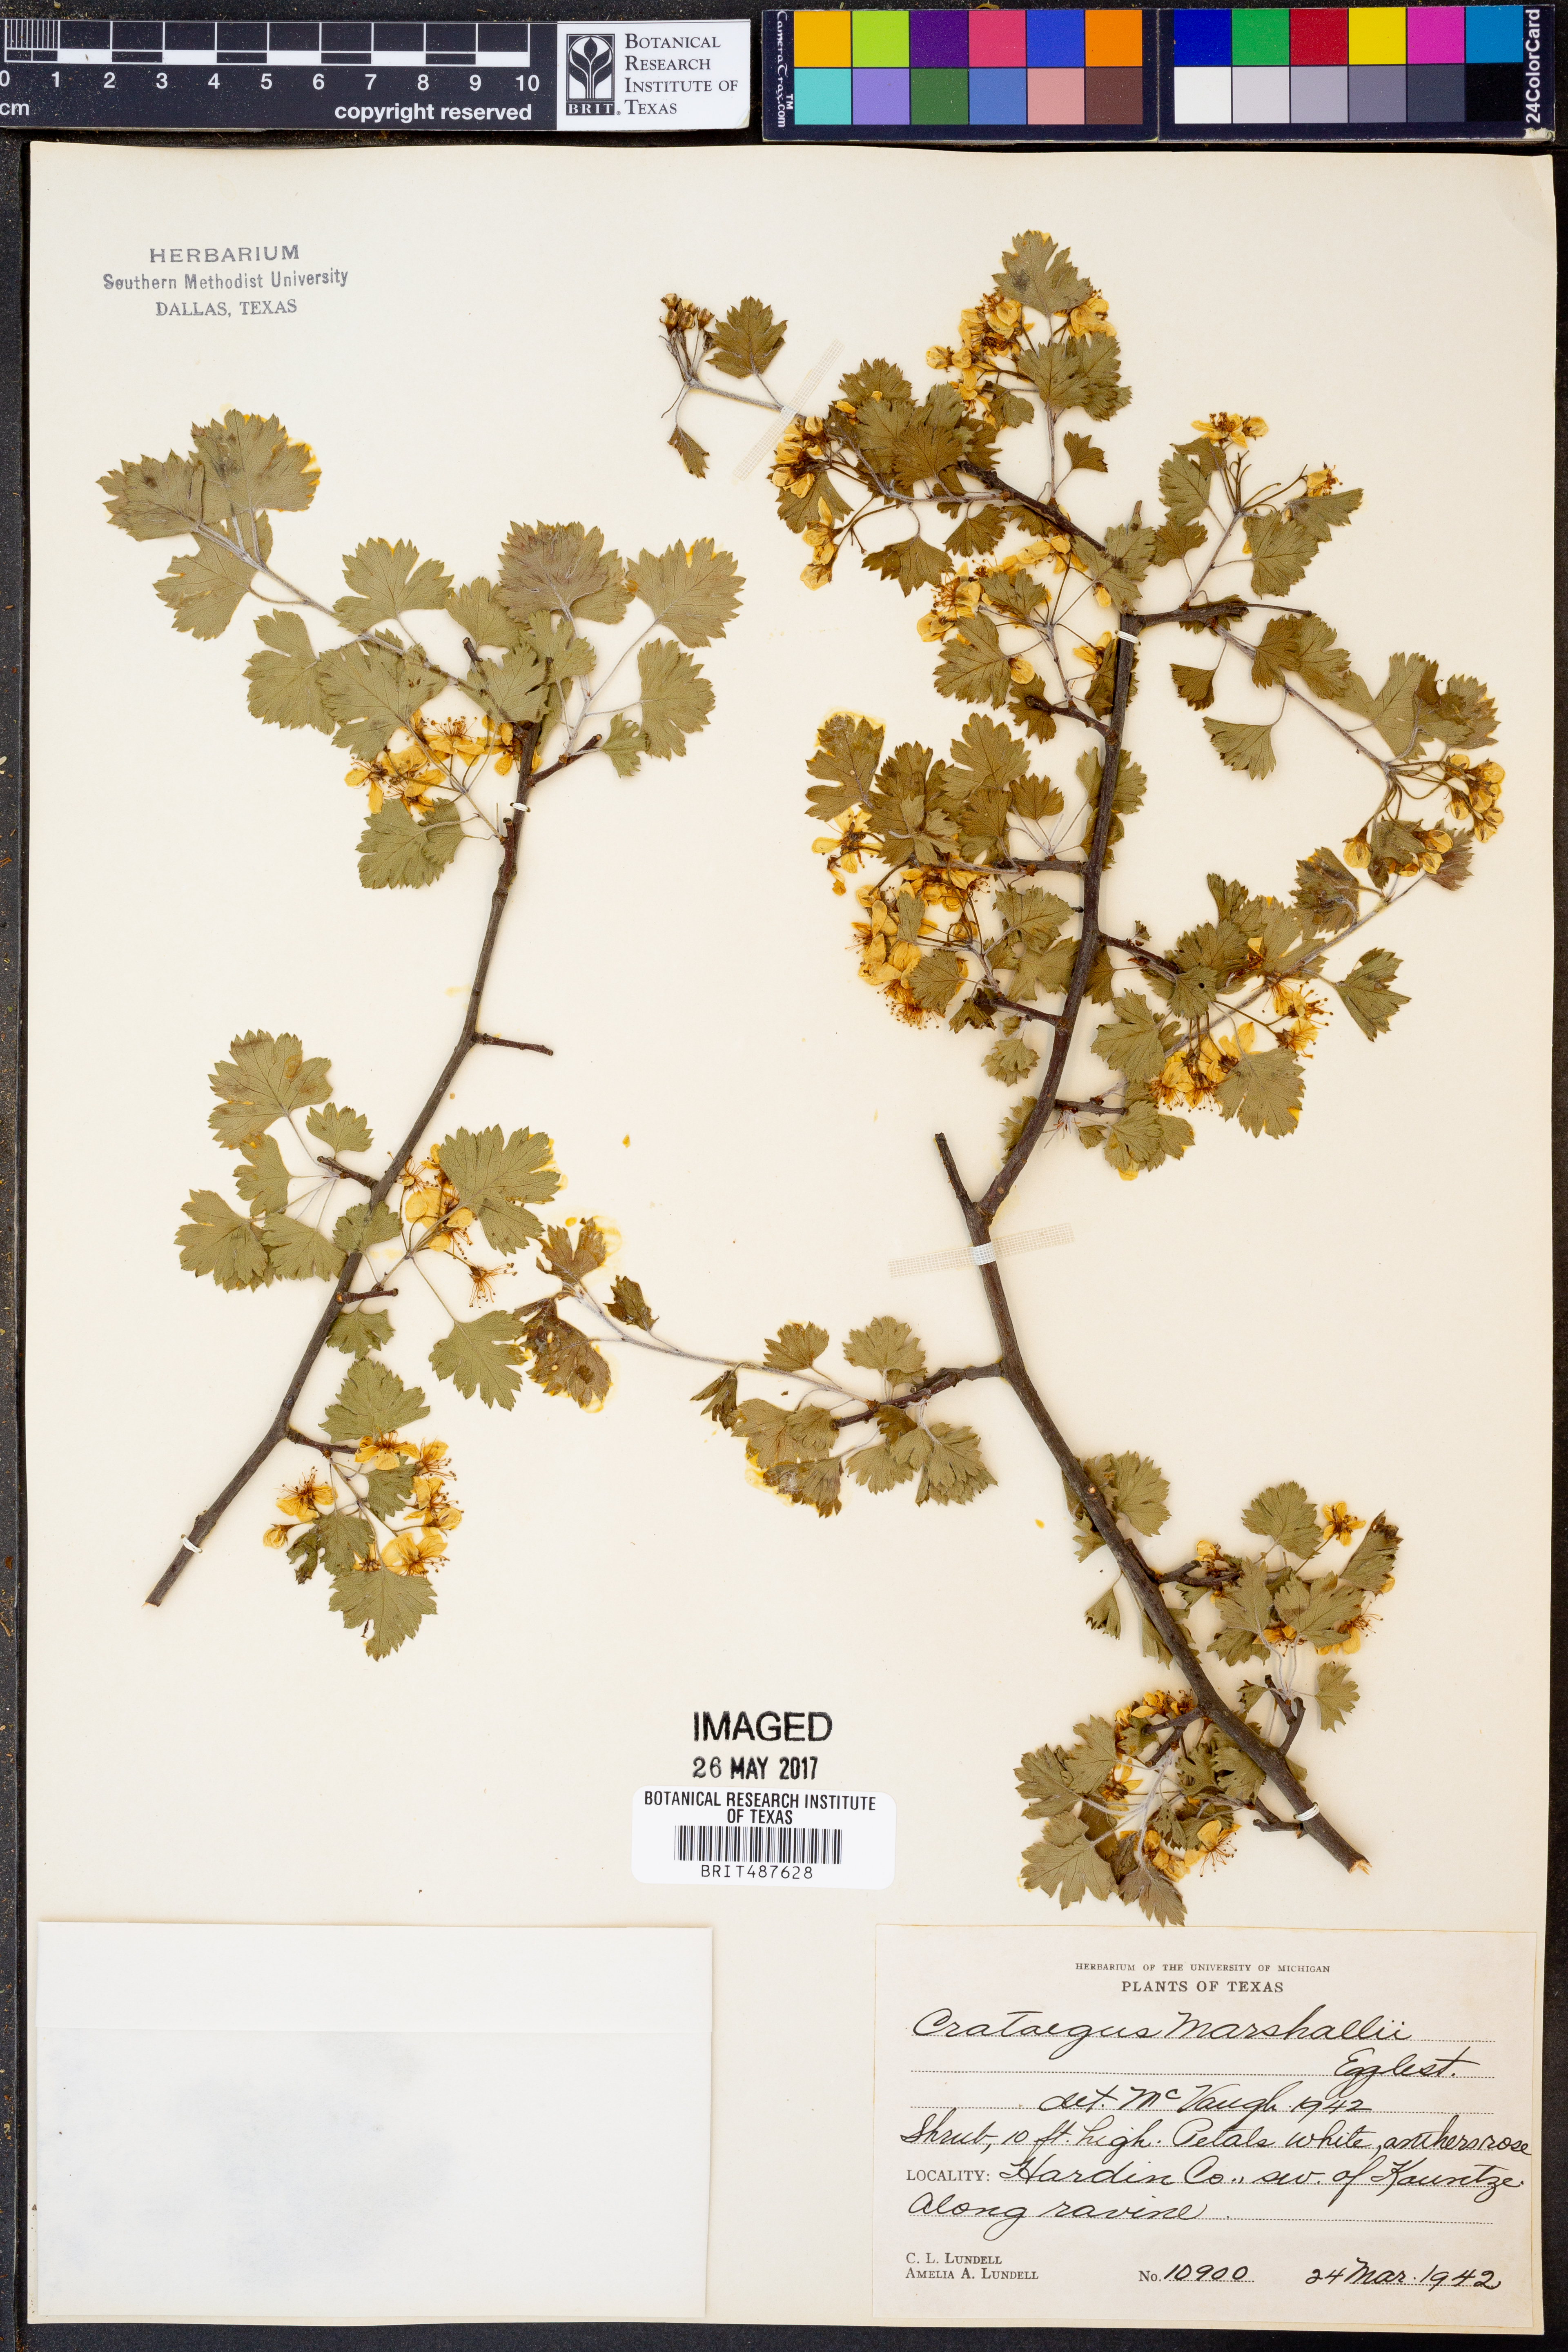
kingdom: Plantae
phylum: Tracheophyta
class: Magnoliopsida
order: Rosales
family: Rosaceae
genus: Crataegus
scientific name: Crataegus marshallii
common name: Parsley-hawthorn
